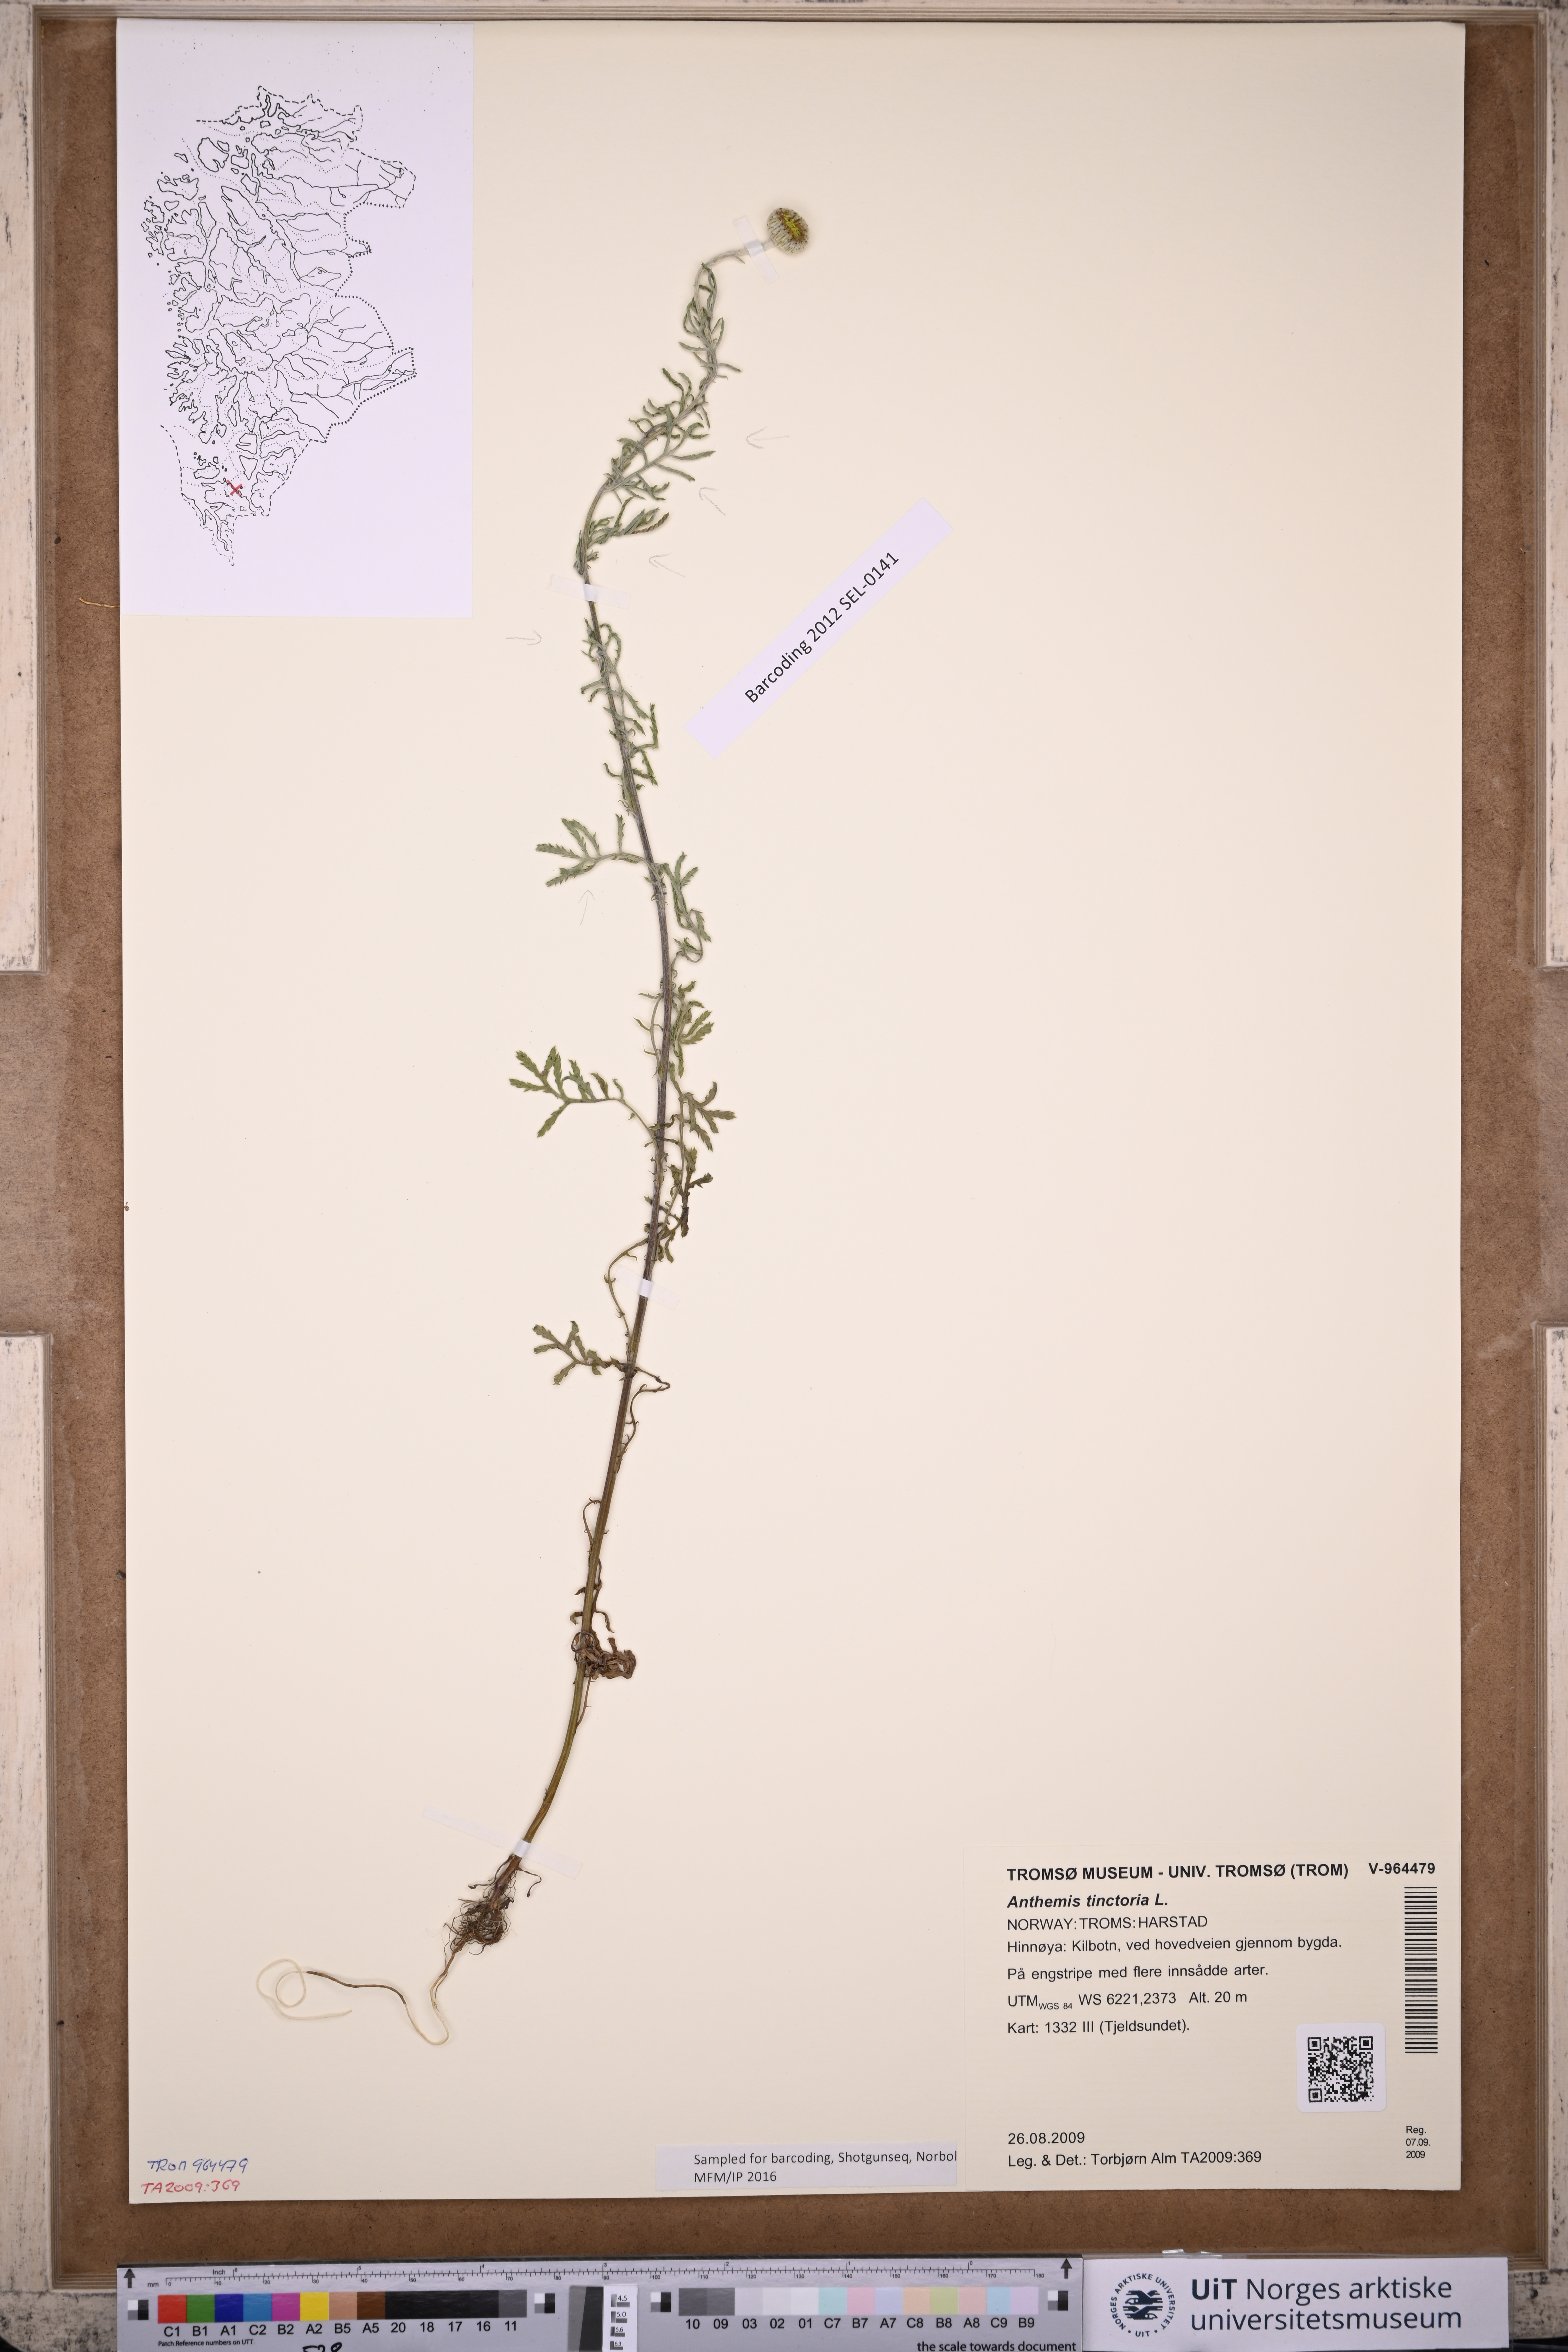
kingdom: Plantae
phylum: Tracheophyta
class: Magnoliopsida
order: Asterales
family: Asteraceae
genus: Cota
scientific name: Cota tinctoria
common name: Golden chamomile
